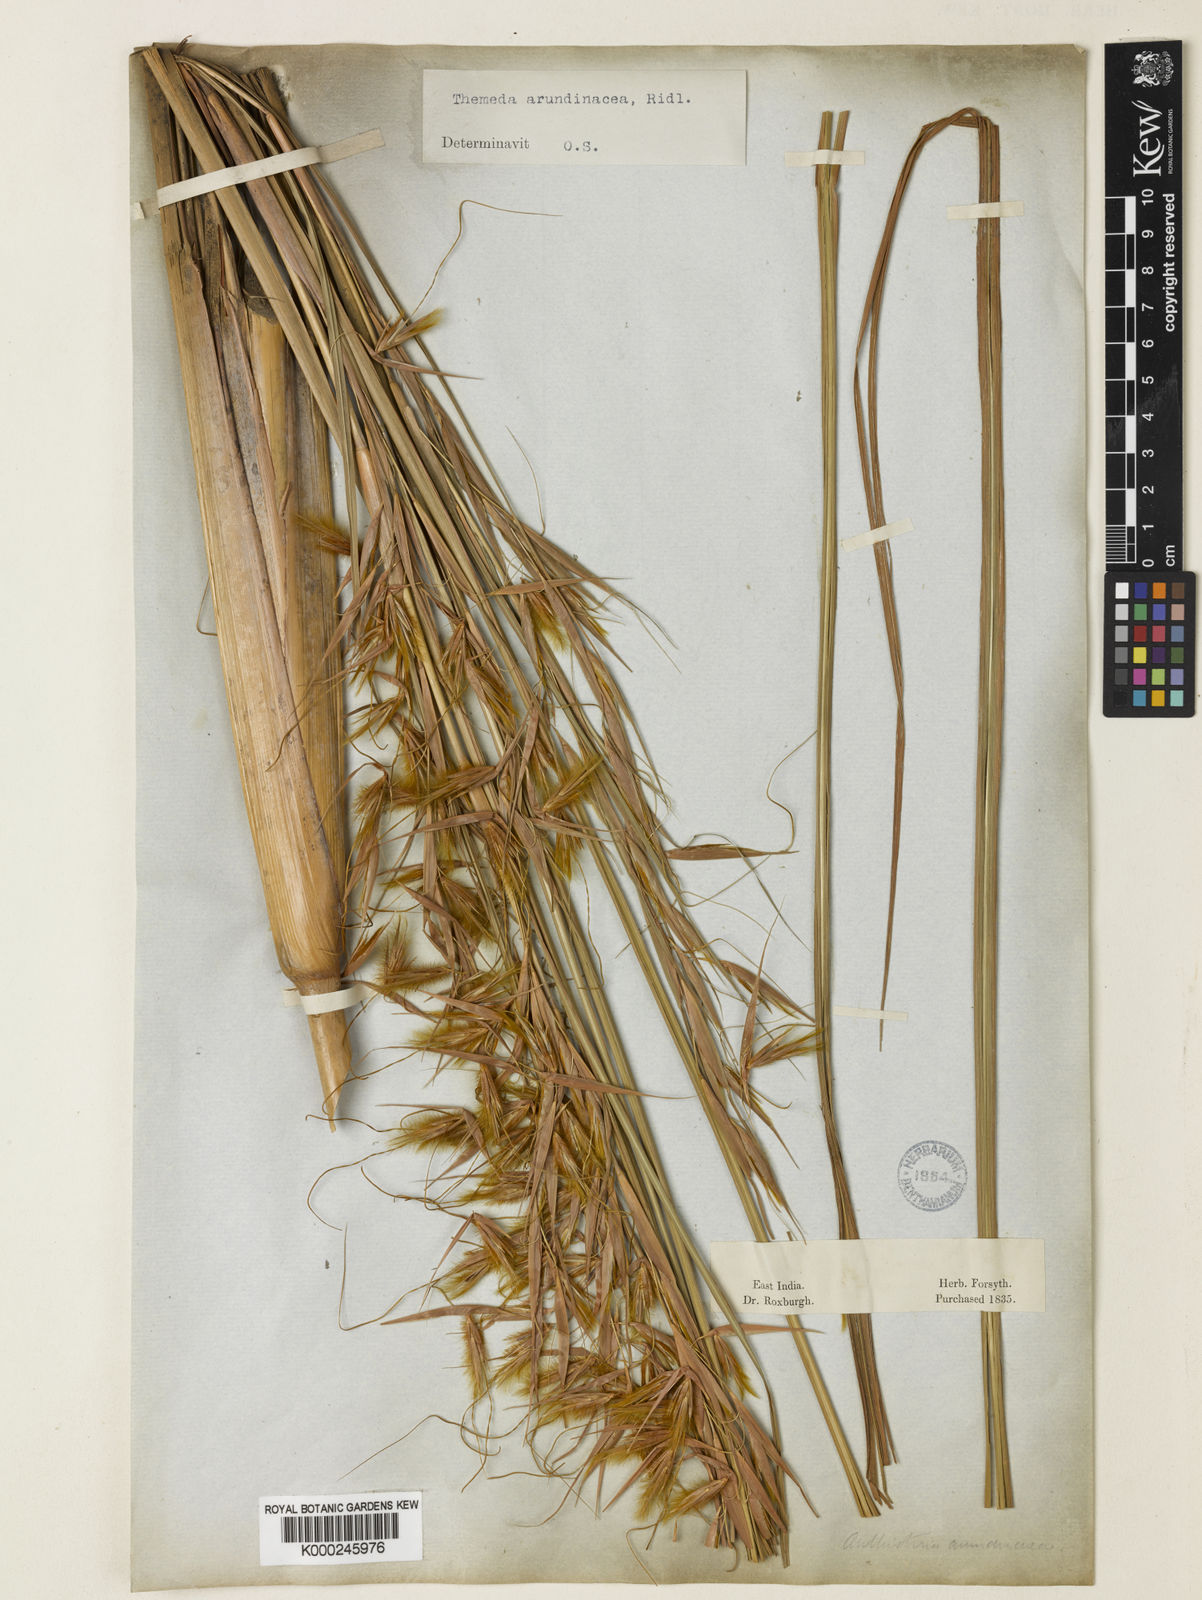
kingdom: Plantae
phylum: Tracheophyta
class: Liliopsida
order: Poales
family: Poaceae
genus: Themeda
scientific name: Themeda
